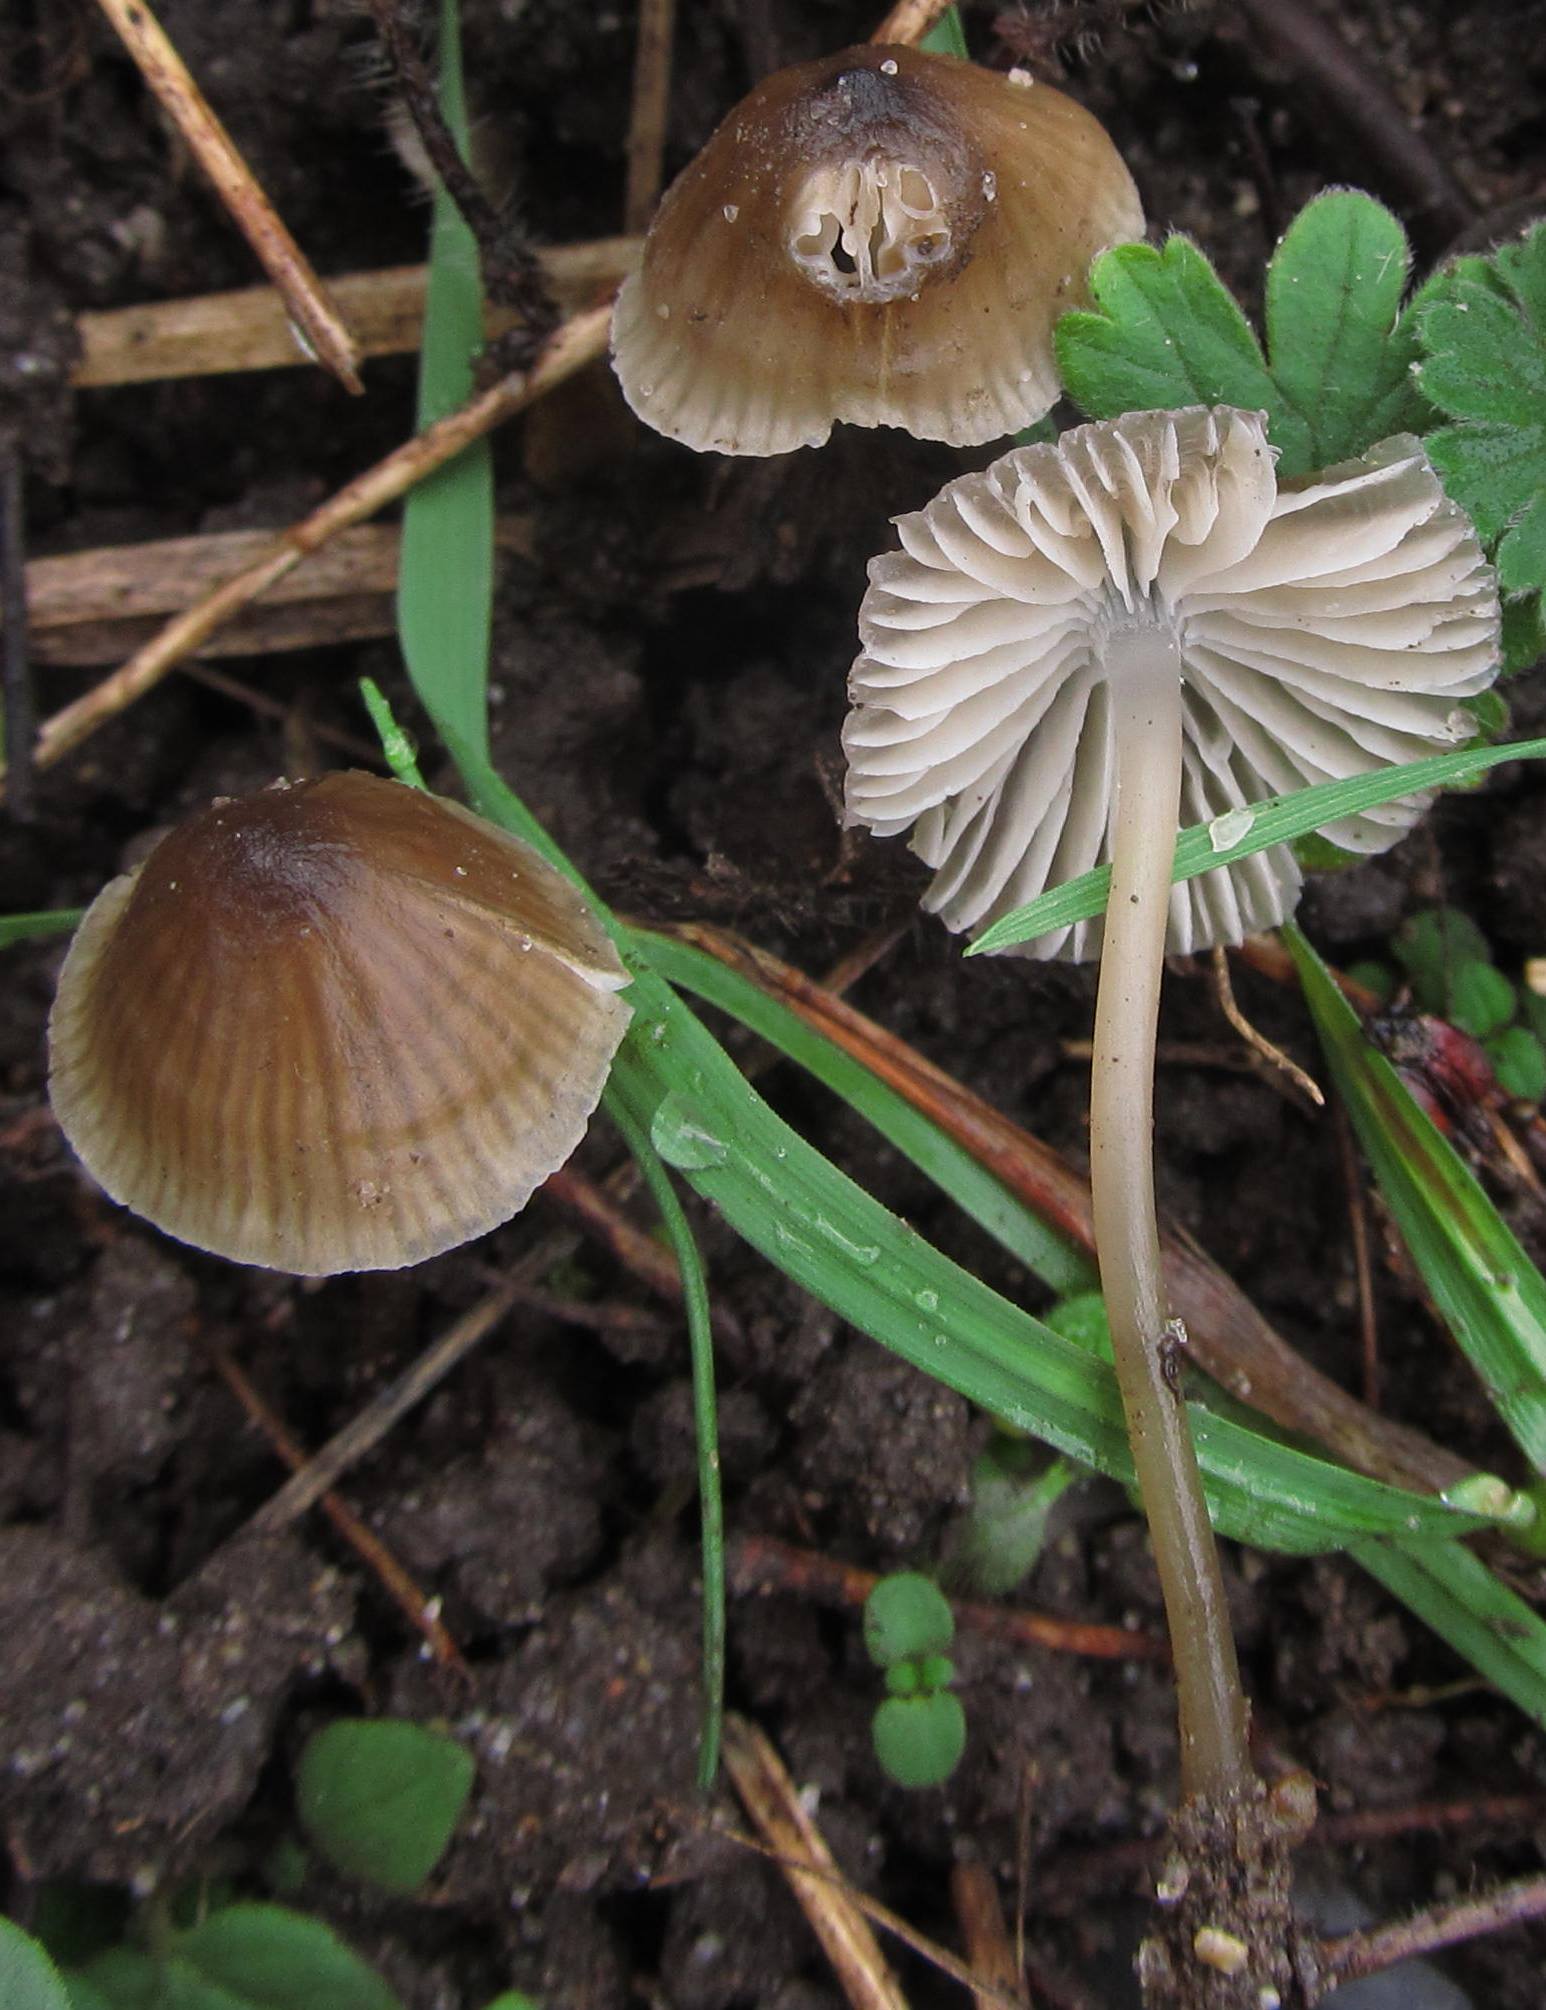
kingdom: Fungi
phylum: Basidiomycota
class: Agaricomycetes
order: Agaricales
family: Porotheleaceae
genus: Phloeomana
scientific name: Phloeomana atropapillata
